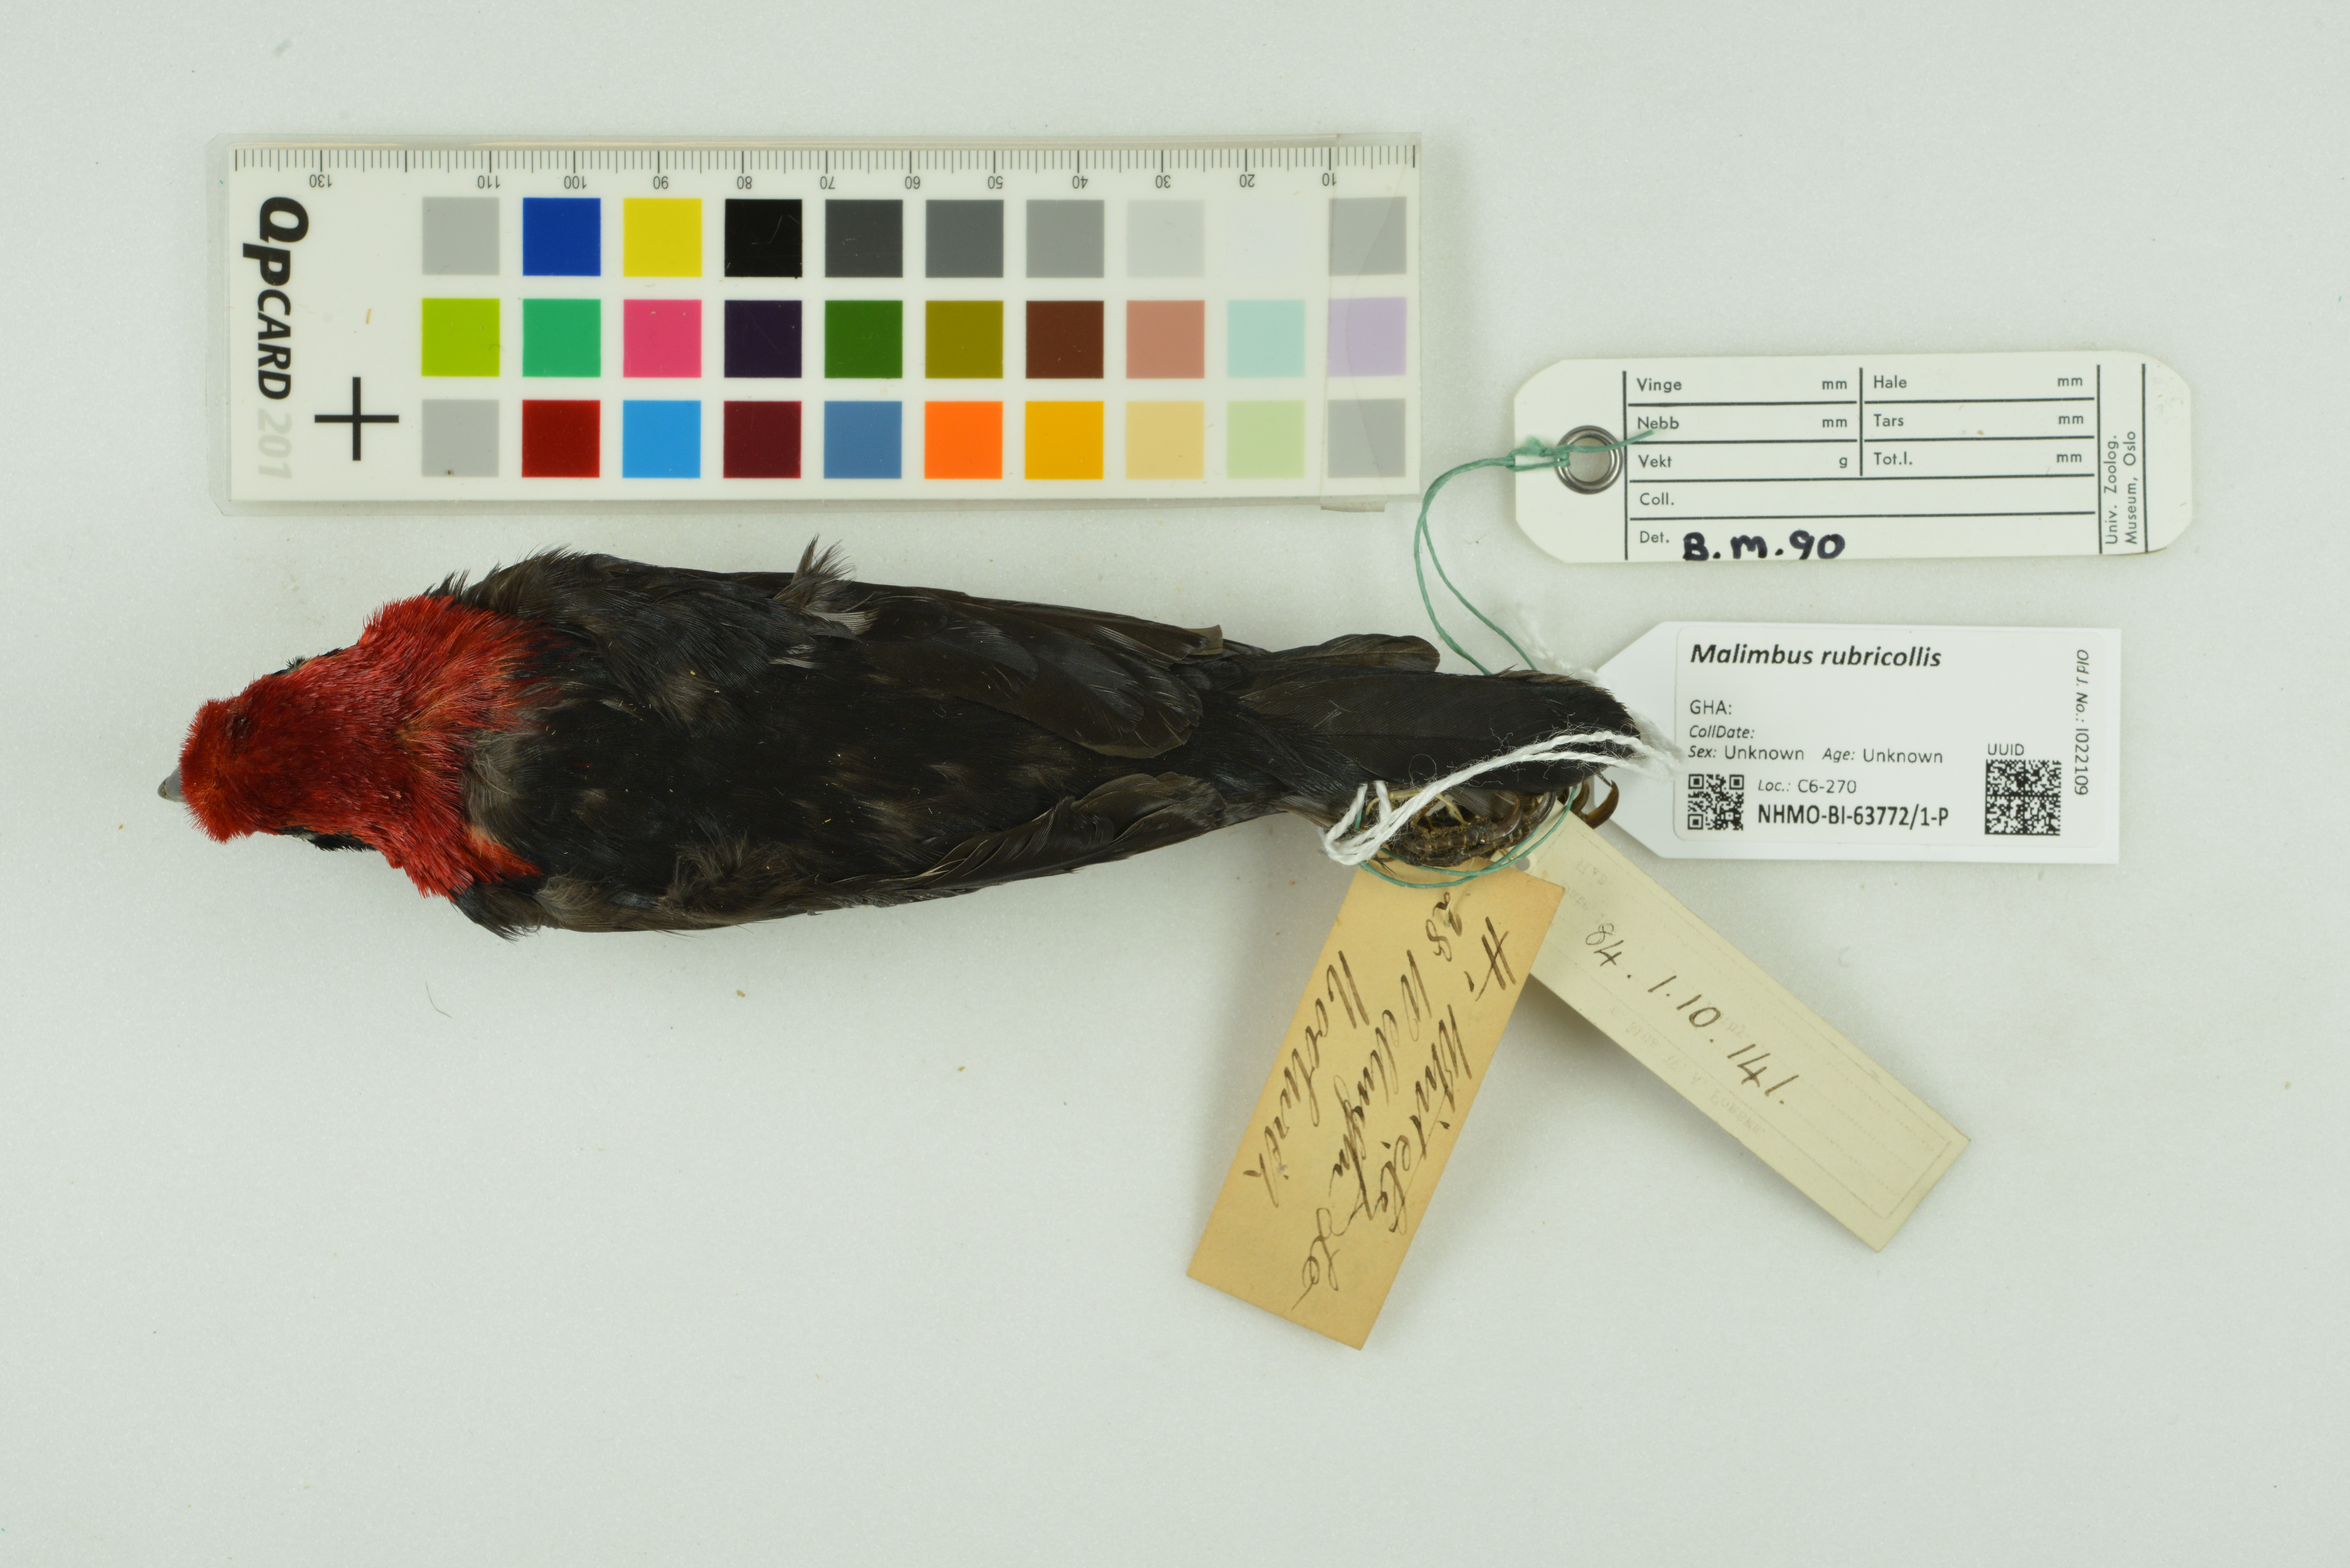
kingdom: Animalia
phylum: Chordata
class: Aves
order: Passeriformes
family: Ploceidae
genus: Malimbus
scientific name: Malimbus rubricollis
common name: Red-headed malimbe
